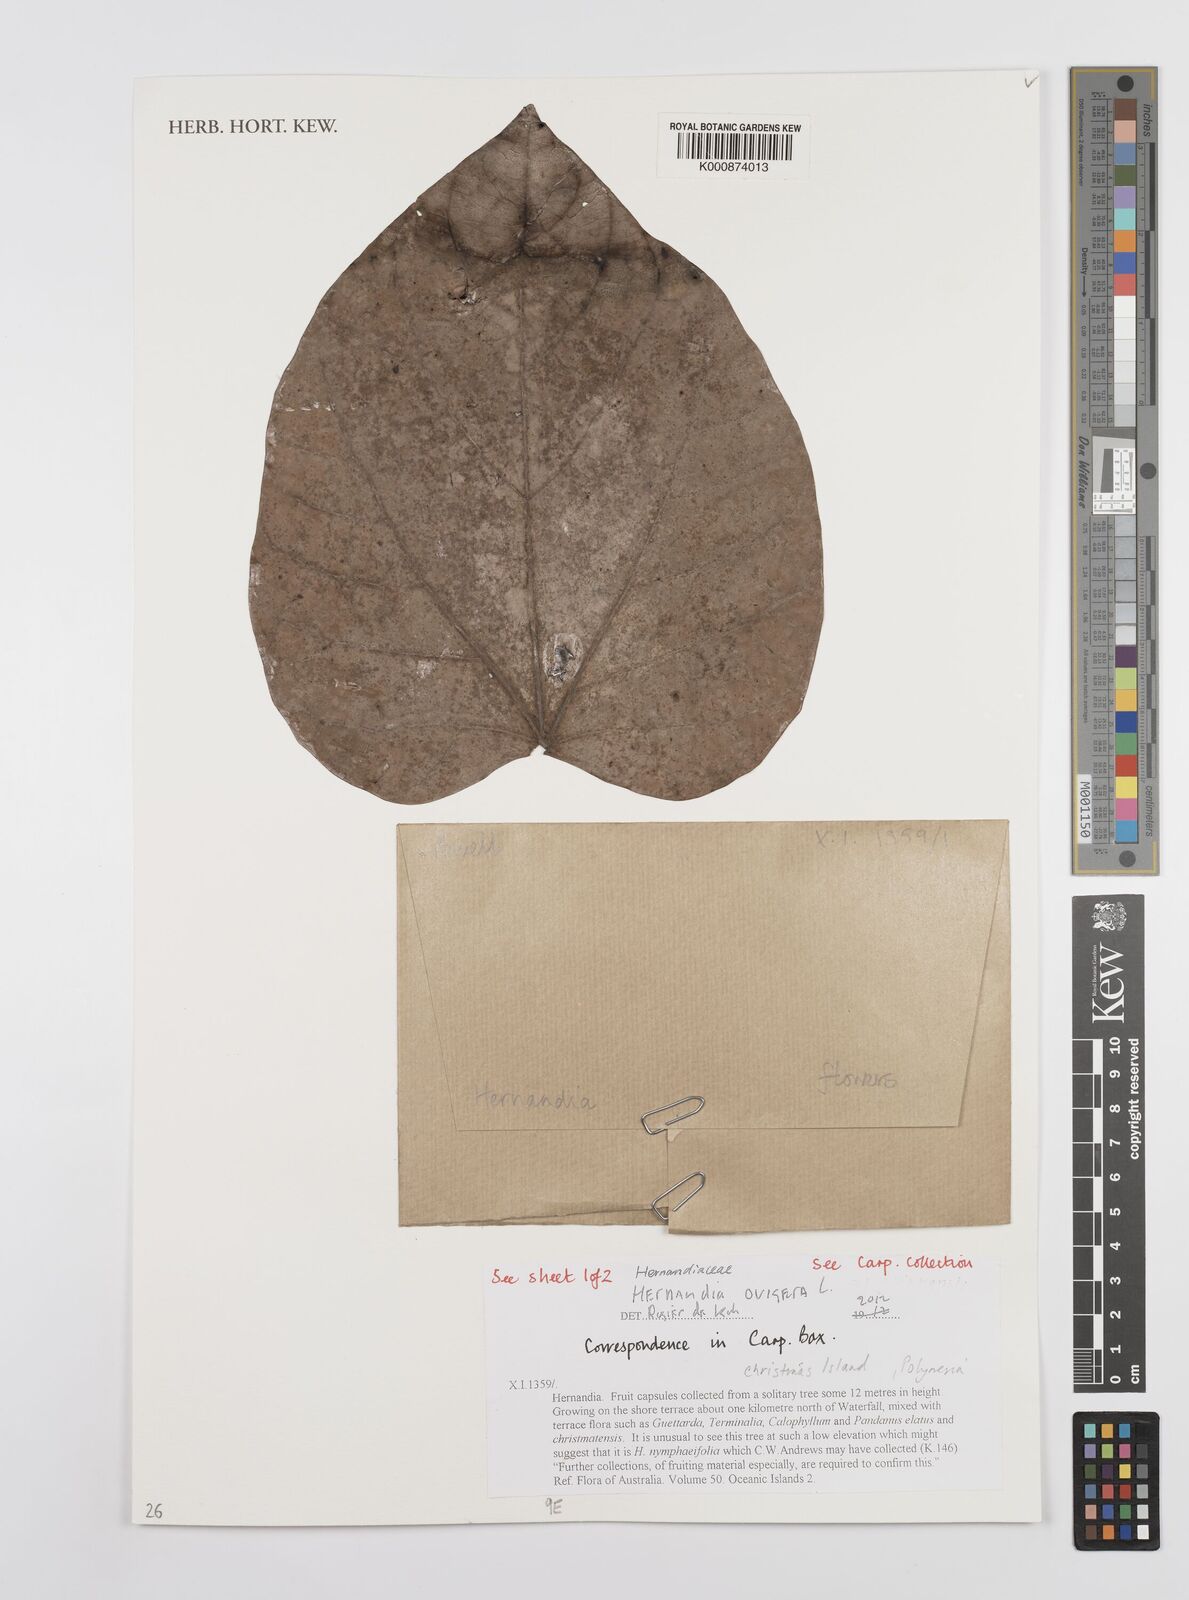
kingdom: Plantae
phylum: Tracheophyta
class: Magnoliopsida
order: Laurales
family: Hernandiaceae
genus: Hernandia
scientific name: Hernandia ovigera
